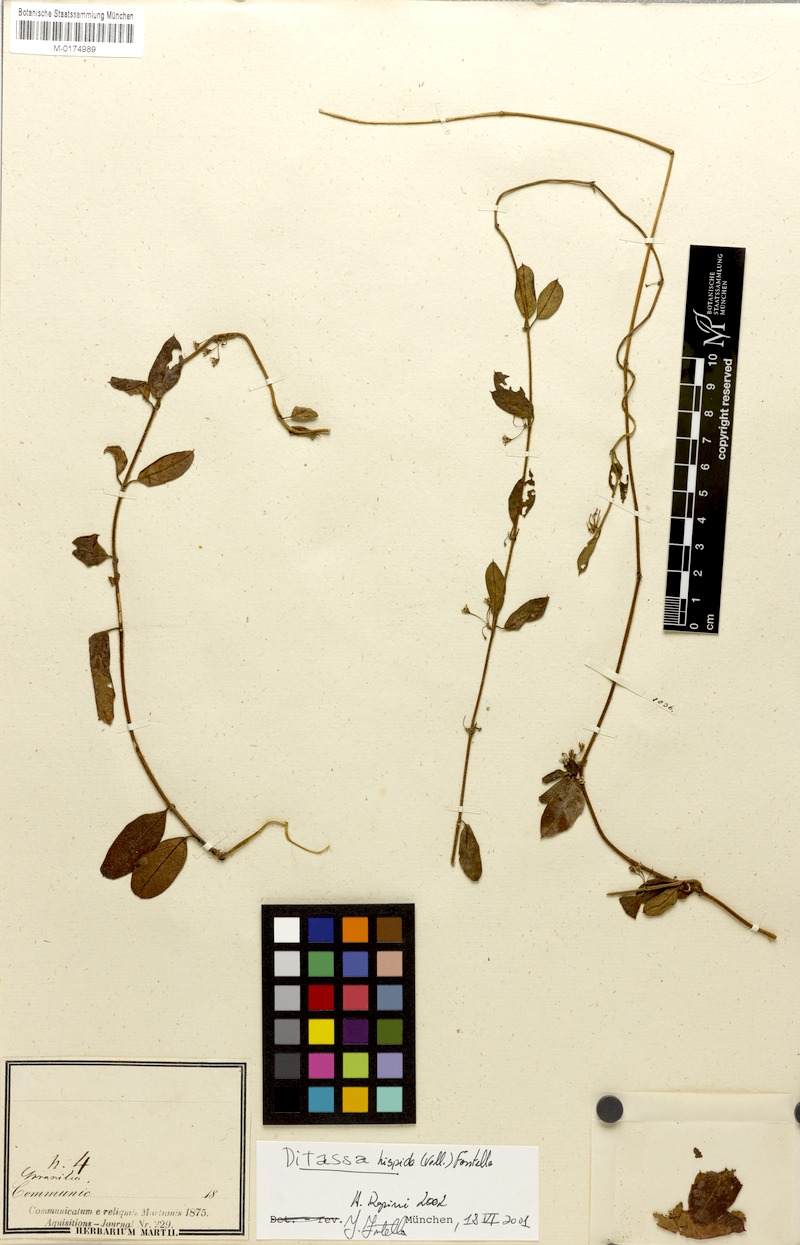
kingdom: Plantae
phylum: Tracheophyta
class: Magnoliopsida
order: Gentianales
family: Apocynaceae
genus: Ditassa
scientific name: Ditassa hispida
